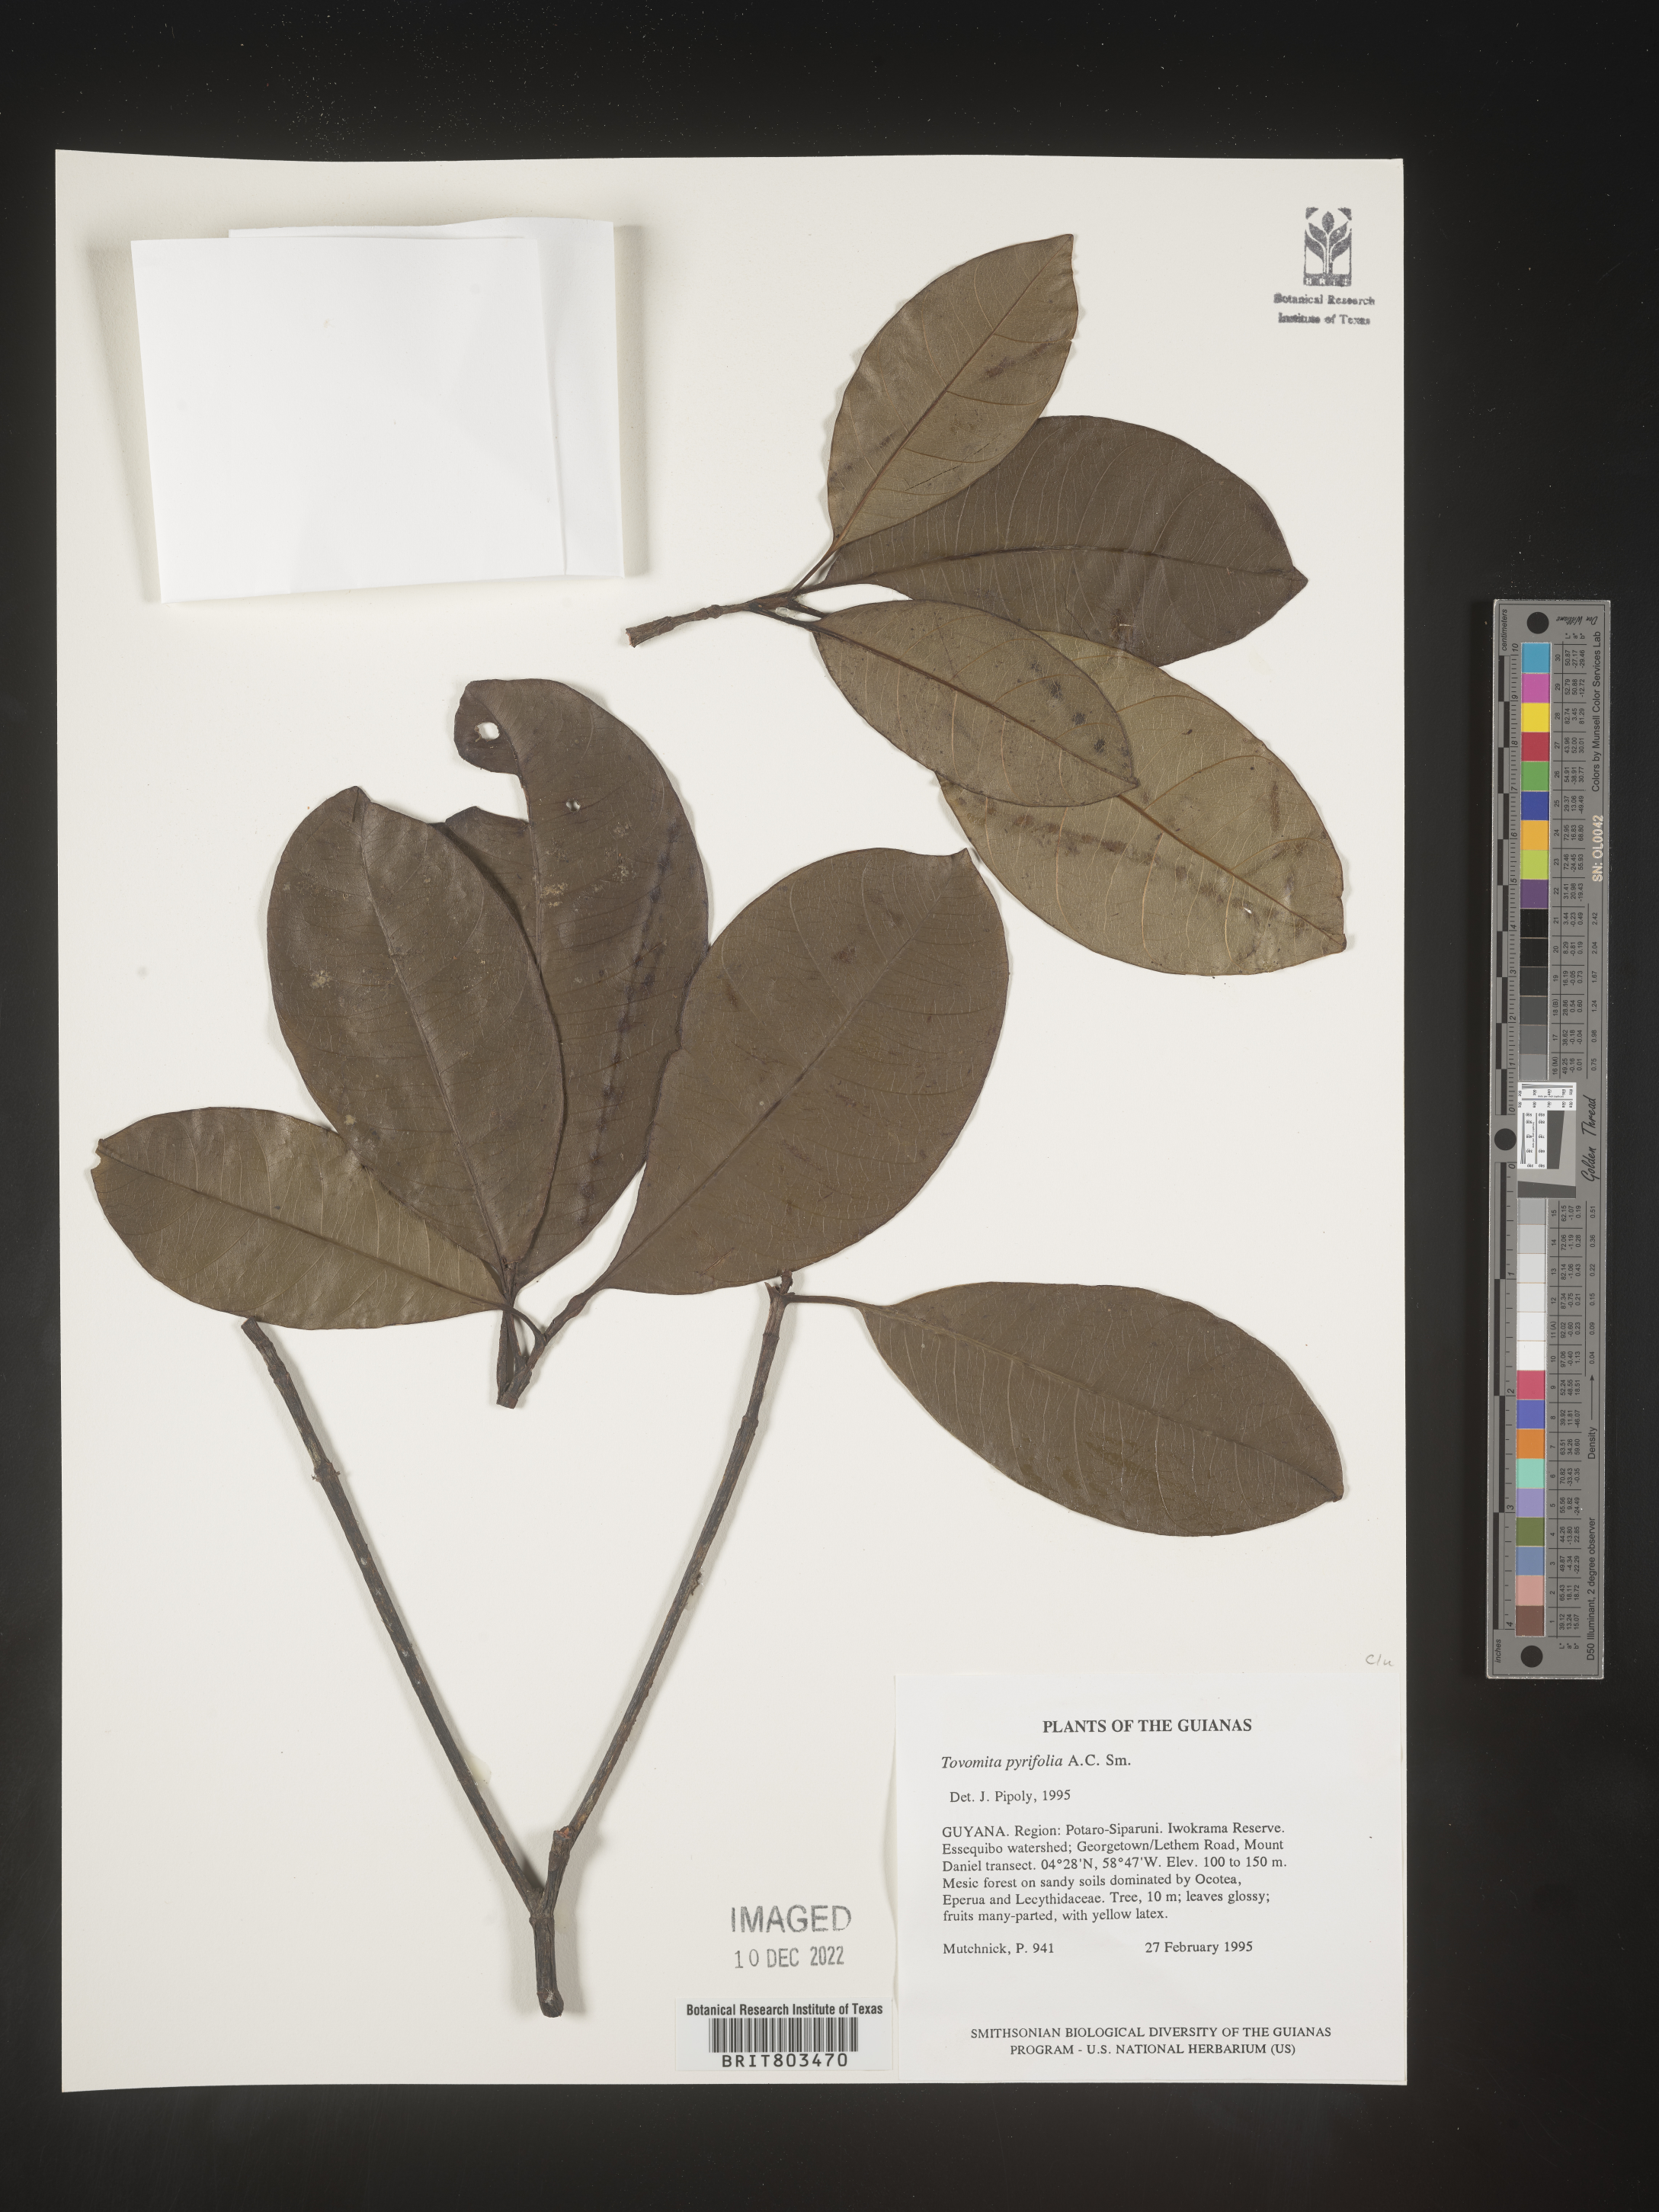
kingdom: Plantae
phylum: Tracheophyta
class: Magnoliopsida
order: Malpighiales
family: Clusiaceae
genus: Tovomita
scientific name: Tovomita
